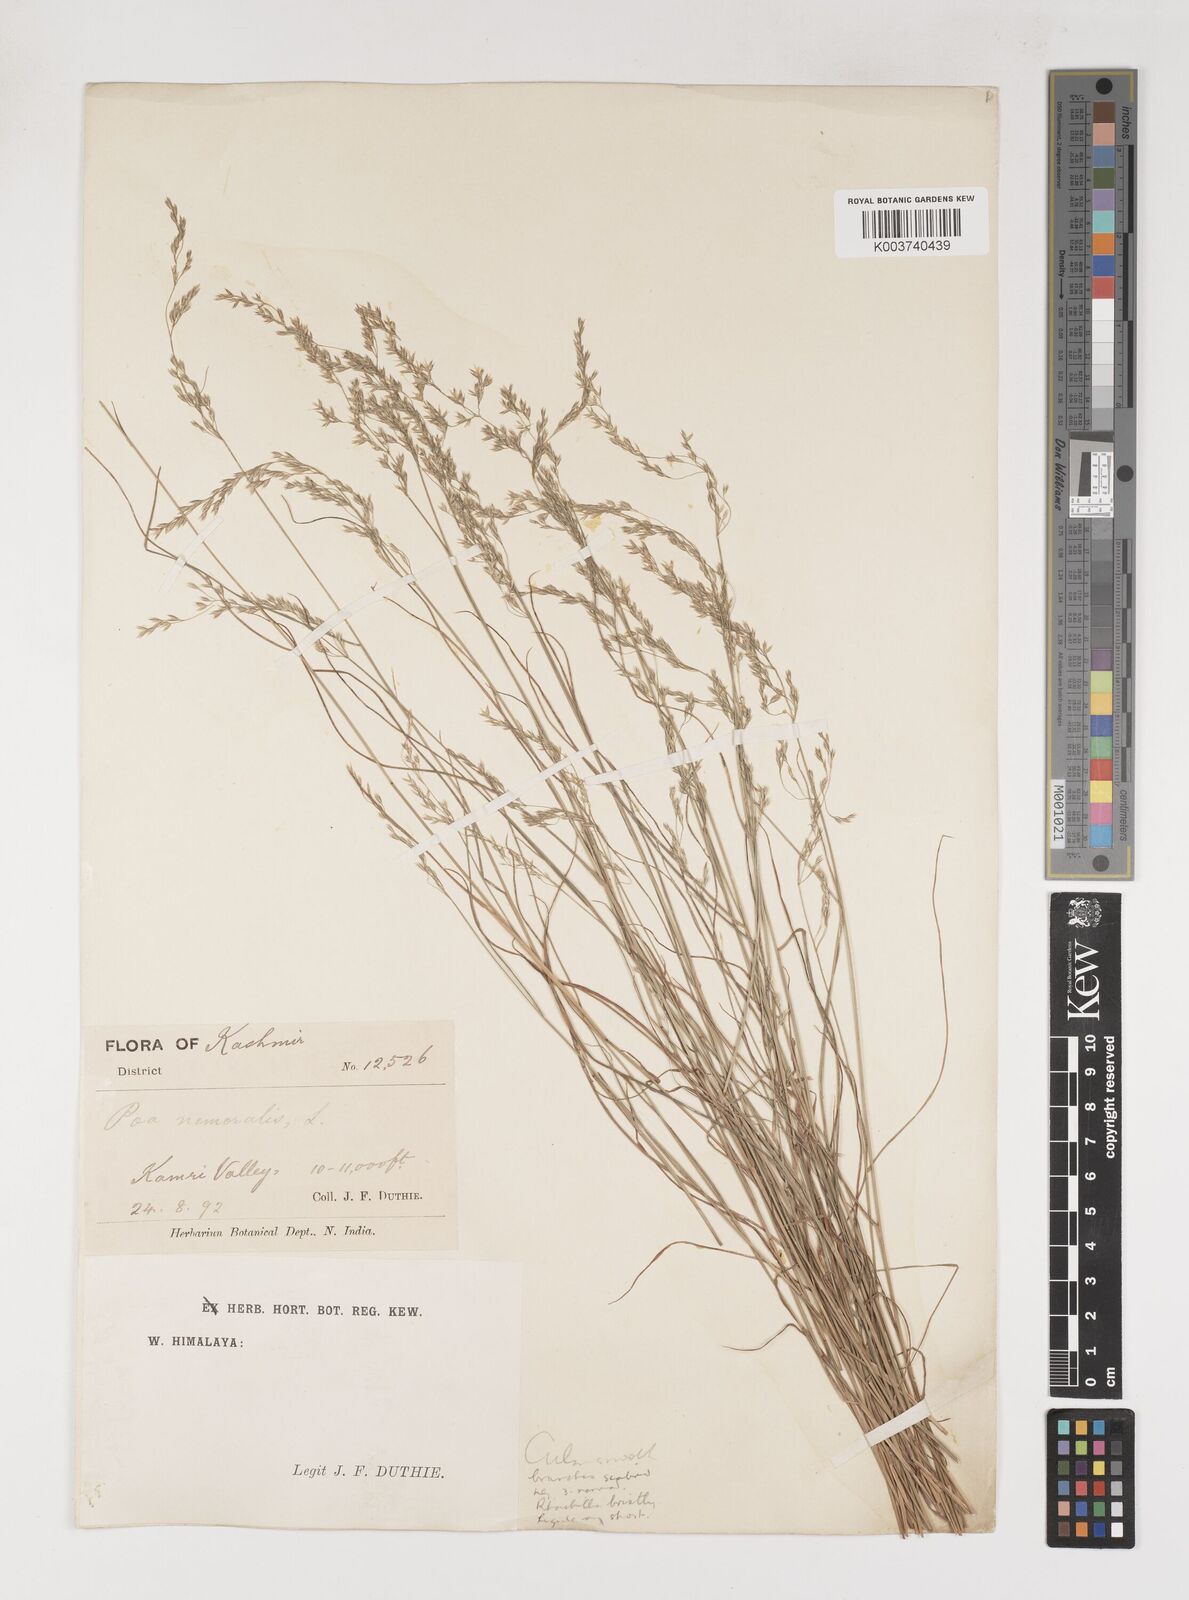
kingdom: Plantae
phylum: Tracheophyta
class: Liliopsida
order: Poales
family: Poaceae
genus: Poa
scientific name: Poa nemoralis
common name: Wood bluegrass
